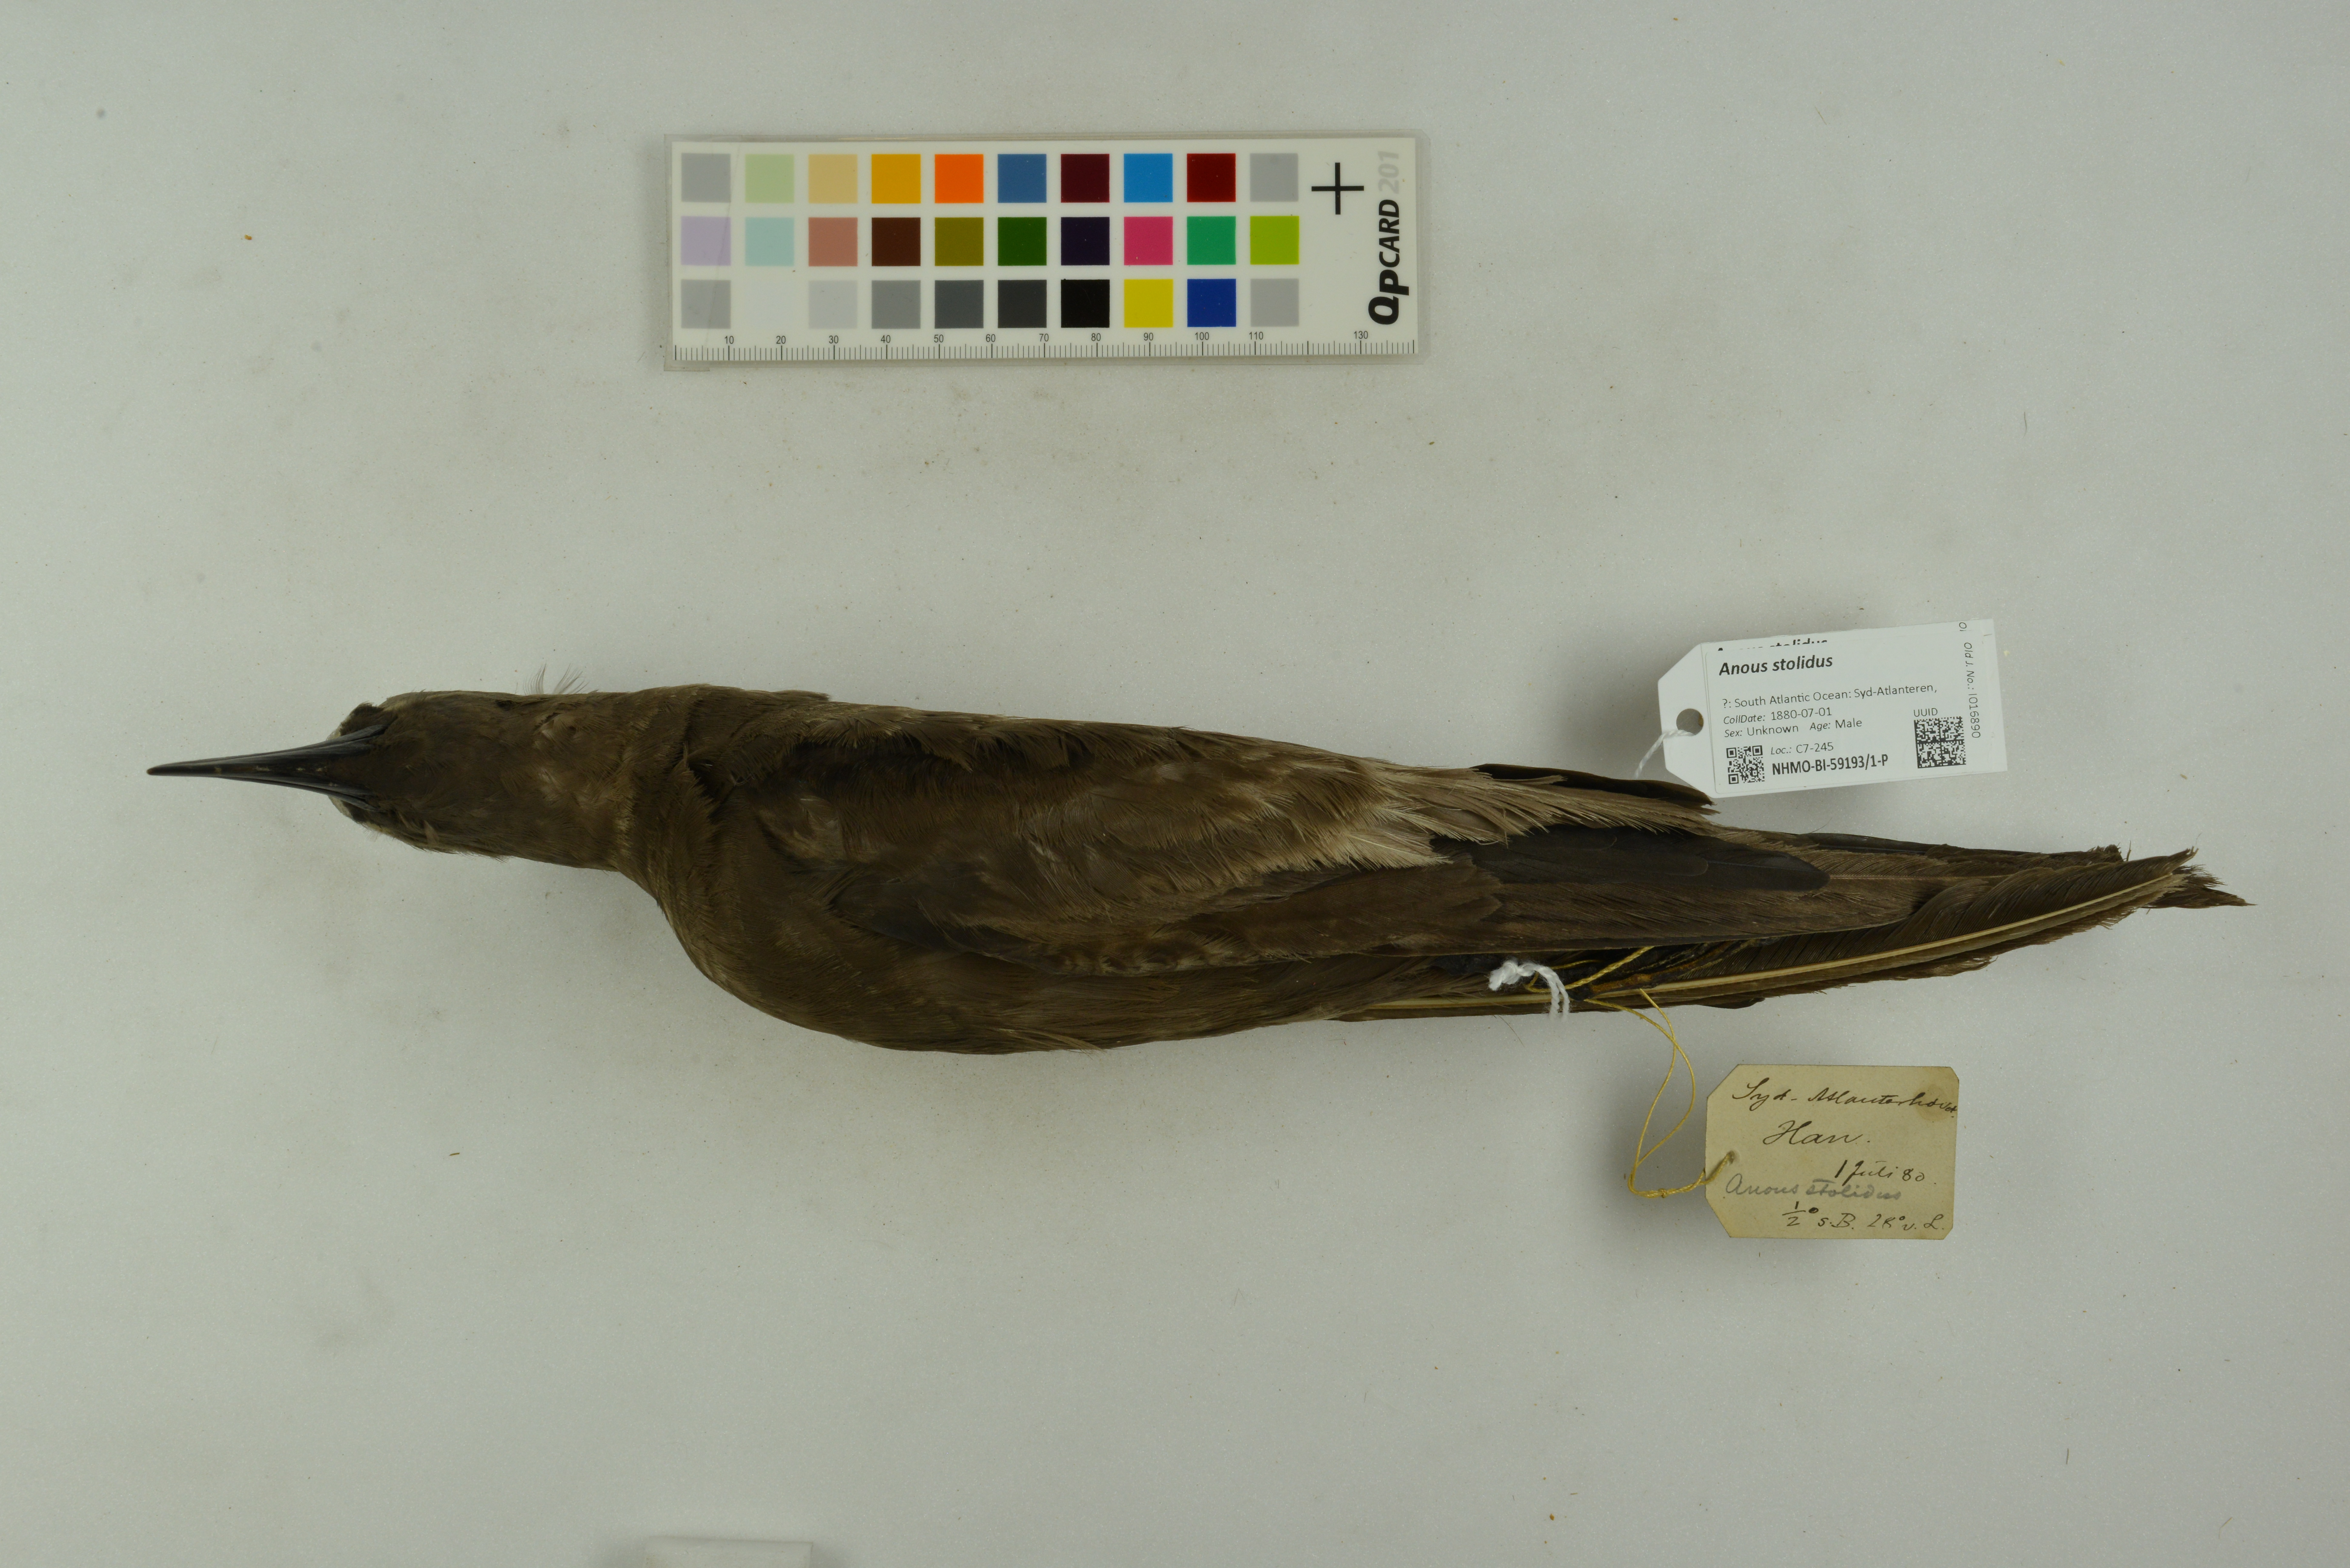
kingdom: Animalia
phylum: Chordata
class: Aves
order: Charadriiformes
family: Laridae
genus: Anous
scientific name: Anous stolidus
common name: Brown noddy
